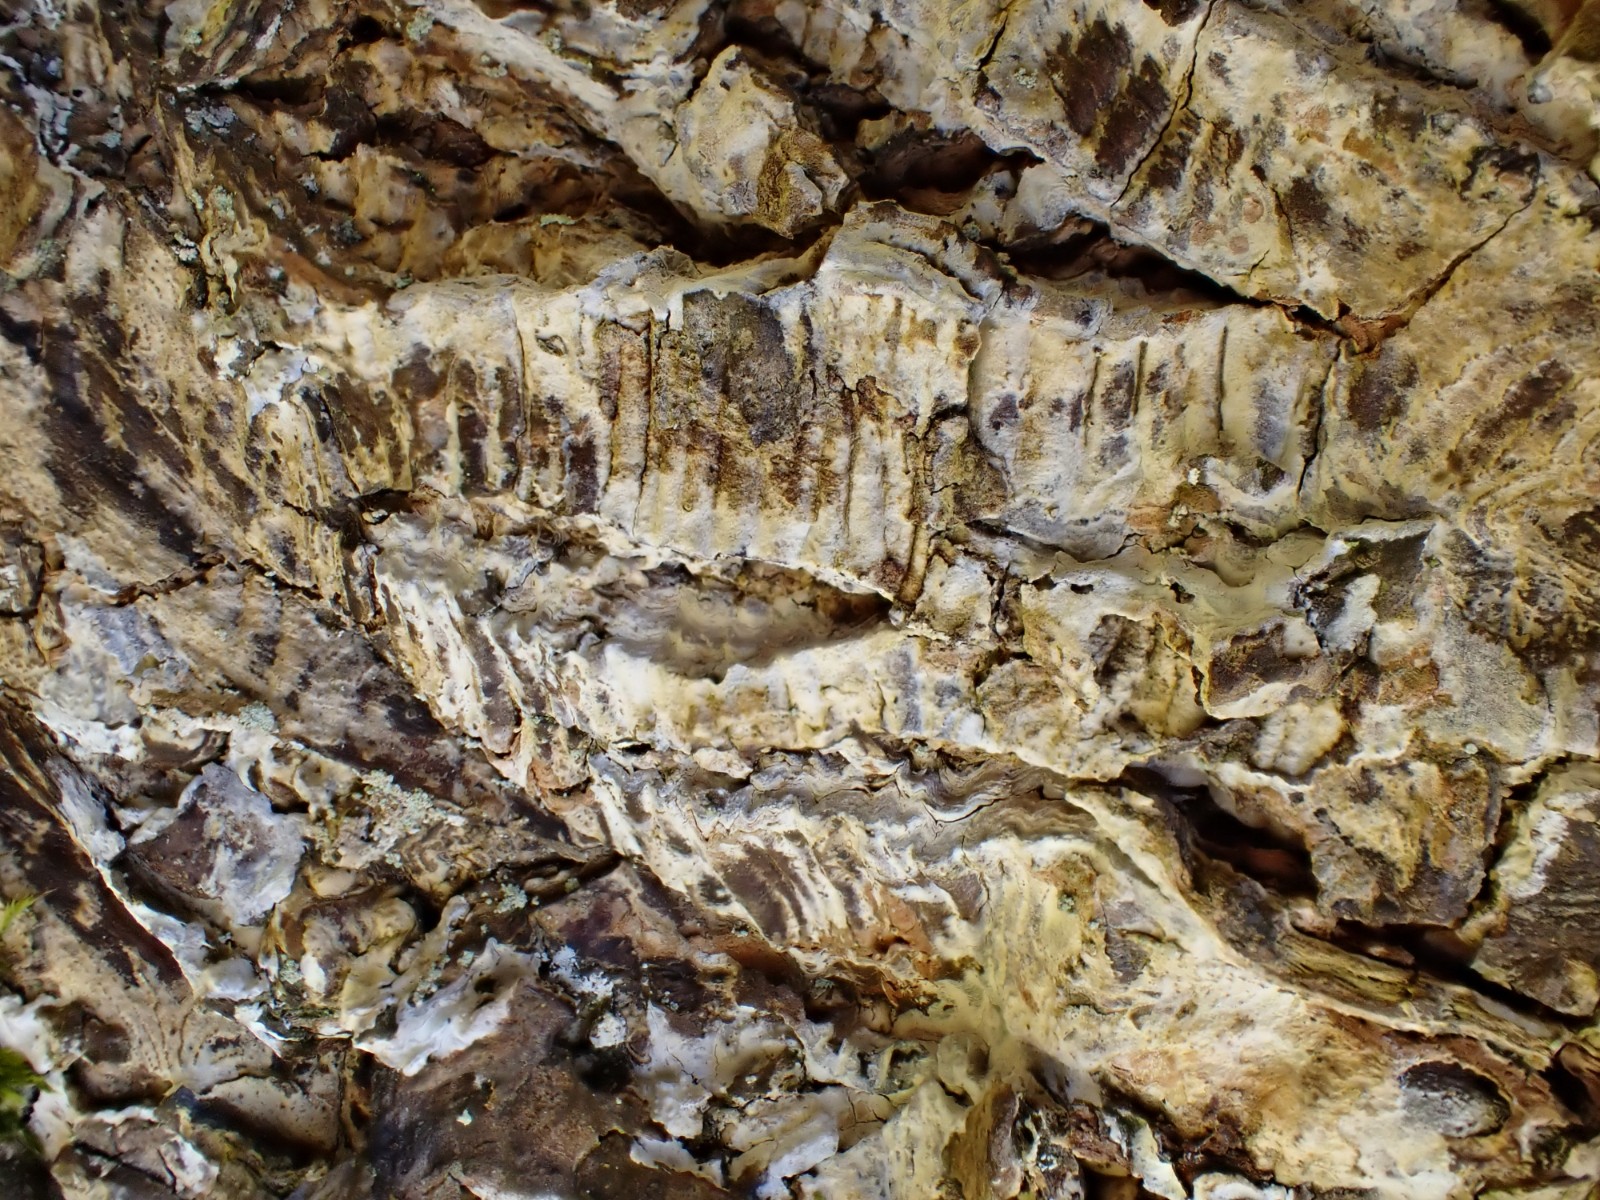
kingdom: Fungi
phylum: Basidiomycota
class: Agaricomycetes
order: Agaricales
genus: Dendrothele
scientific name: Dendrothele acerina
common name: navr-kalkplet
